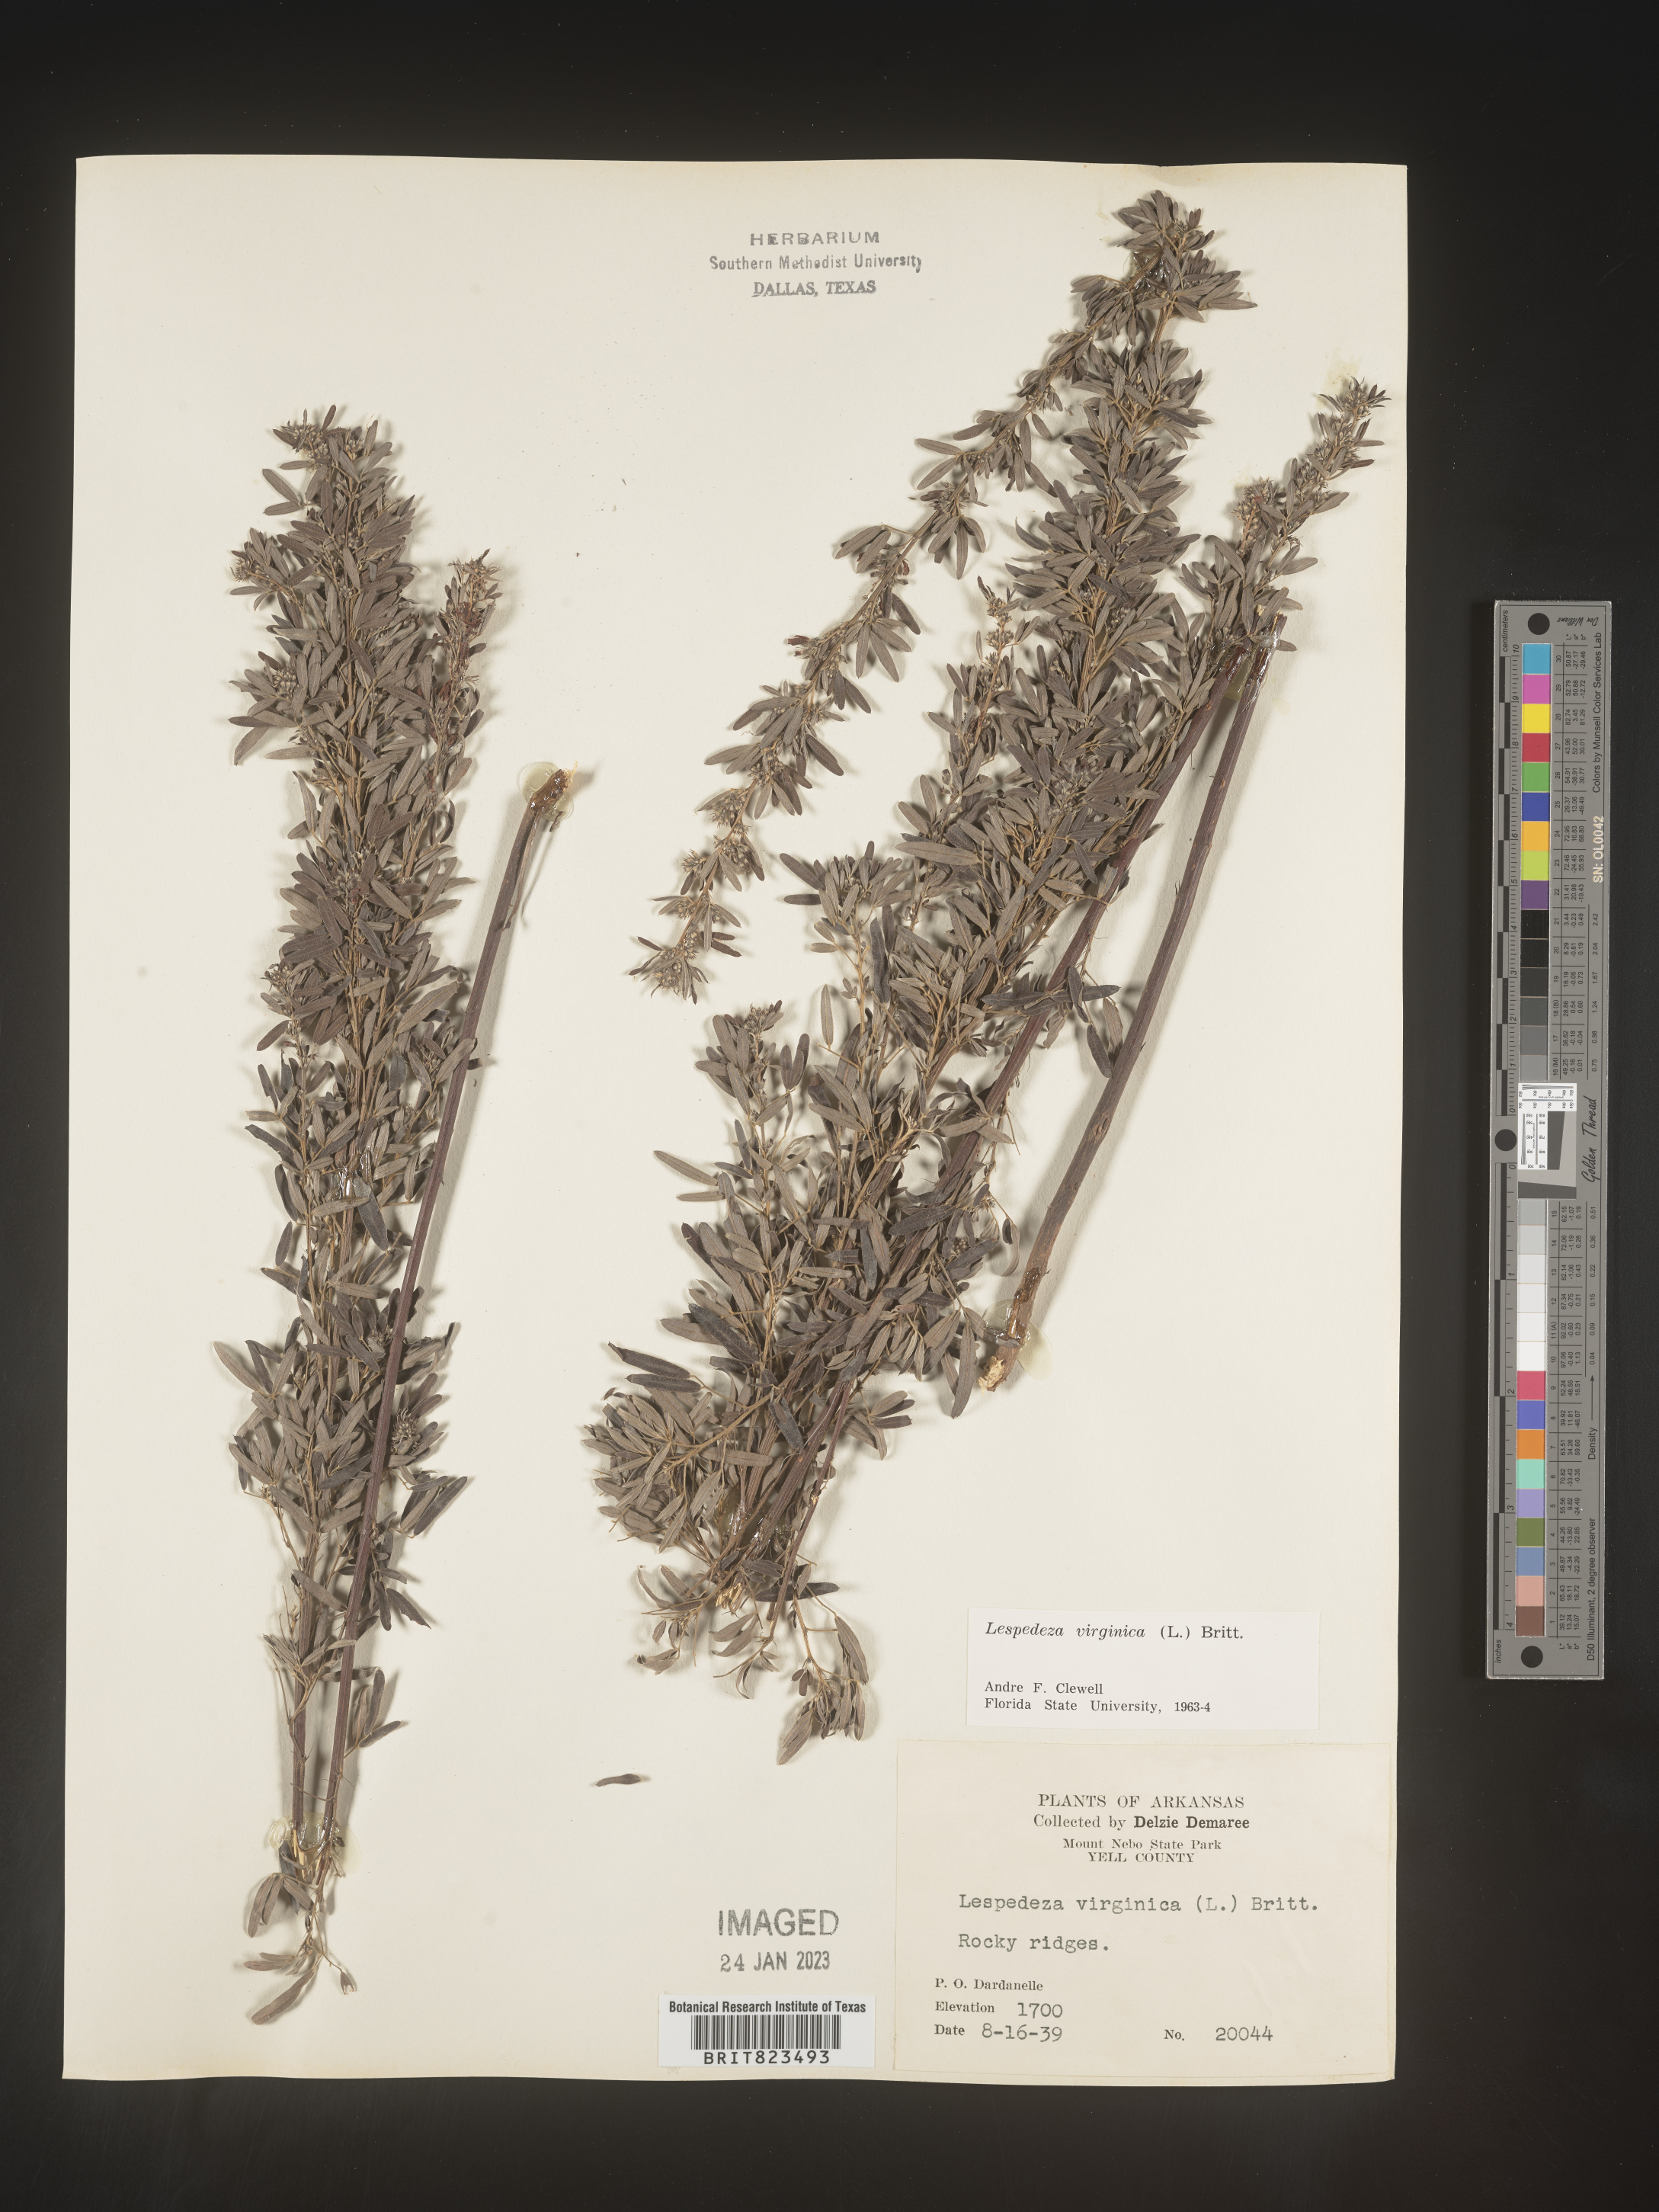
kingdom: Plantae
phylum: Tracheophyta
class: Magnoliopsida
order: Fabales
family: Fabaceae
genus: Lespedeza
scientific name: Lespedeza virginica
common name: Slender bush-clover
